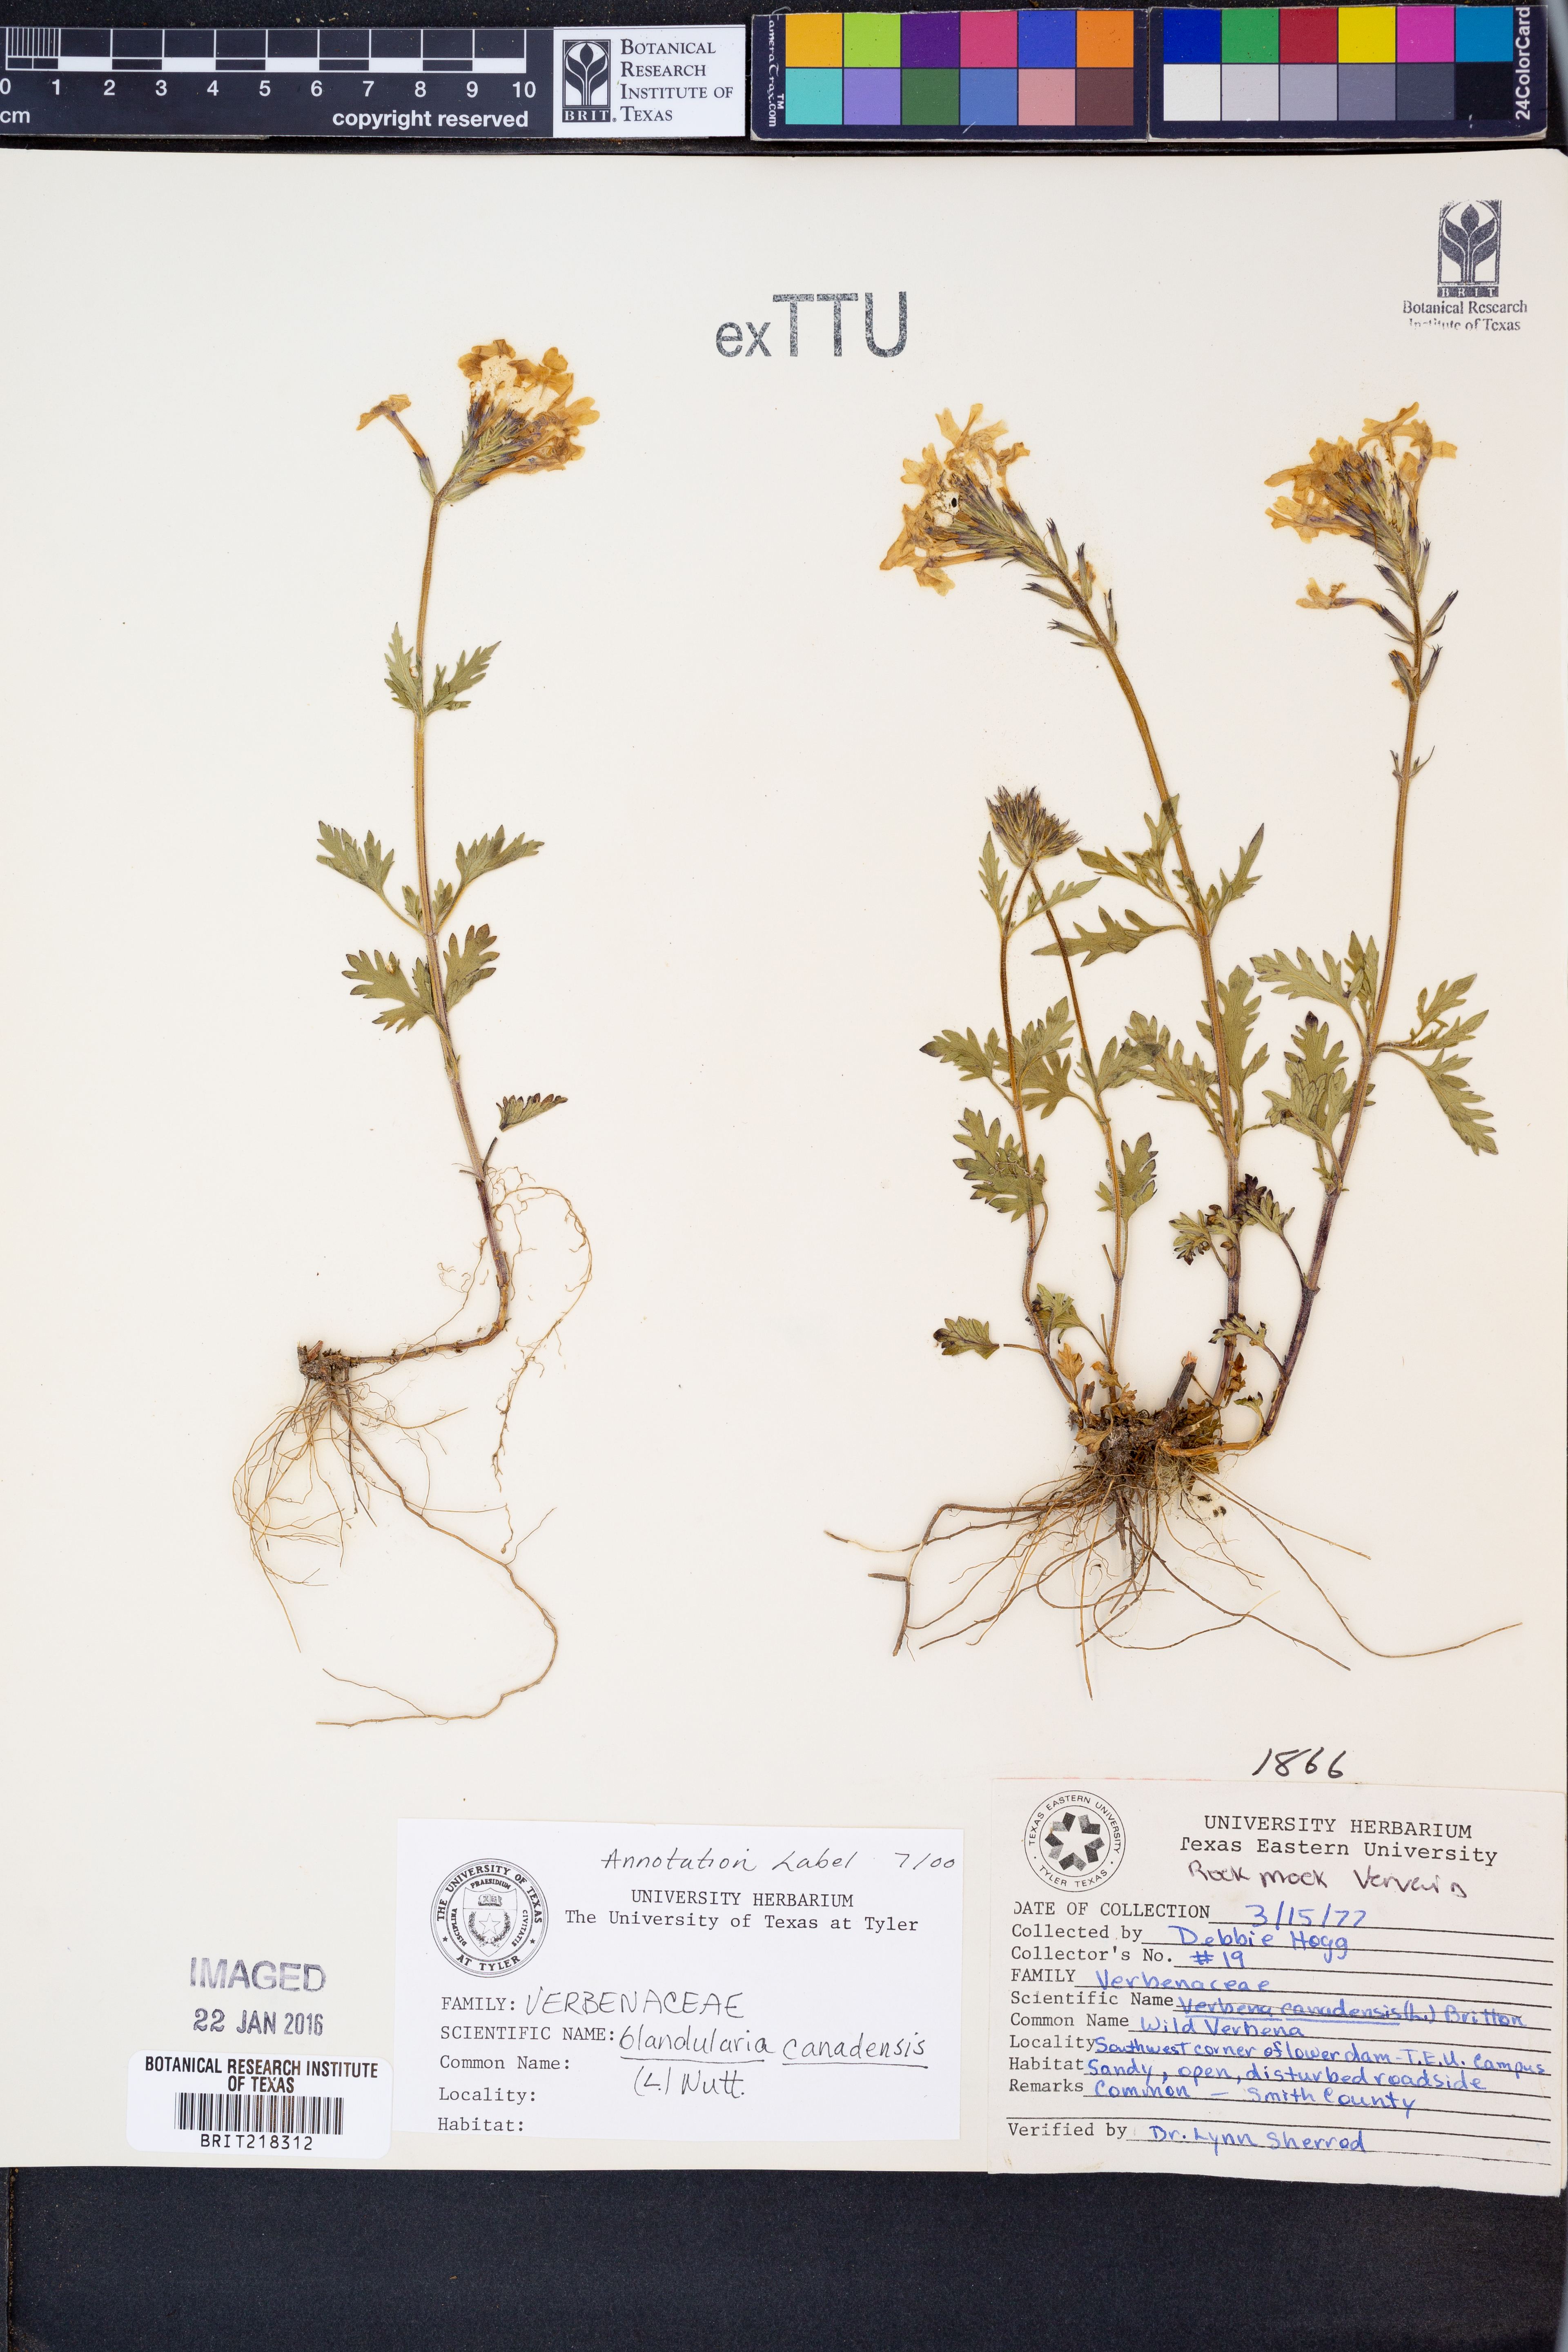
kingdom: Plantae
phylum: Tracheophyta
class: Magnoliopsida
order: Lamiales
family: Verbenaceae
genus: Verbena
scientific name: Verbena canadensis
